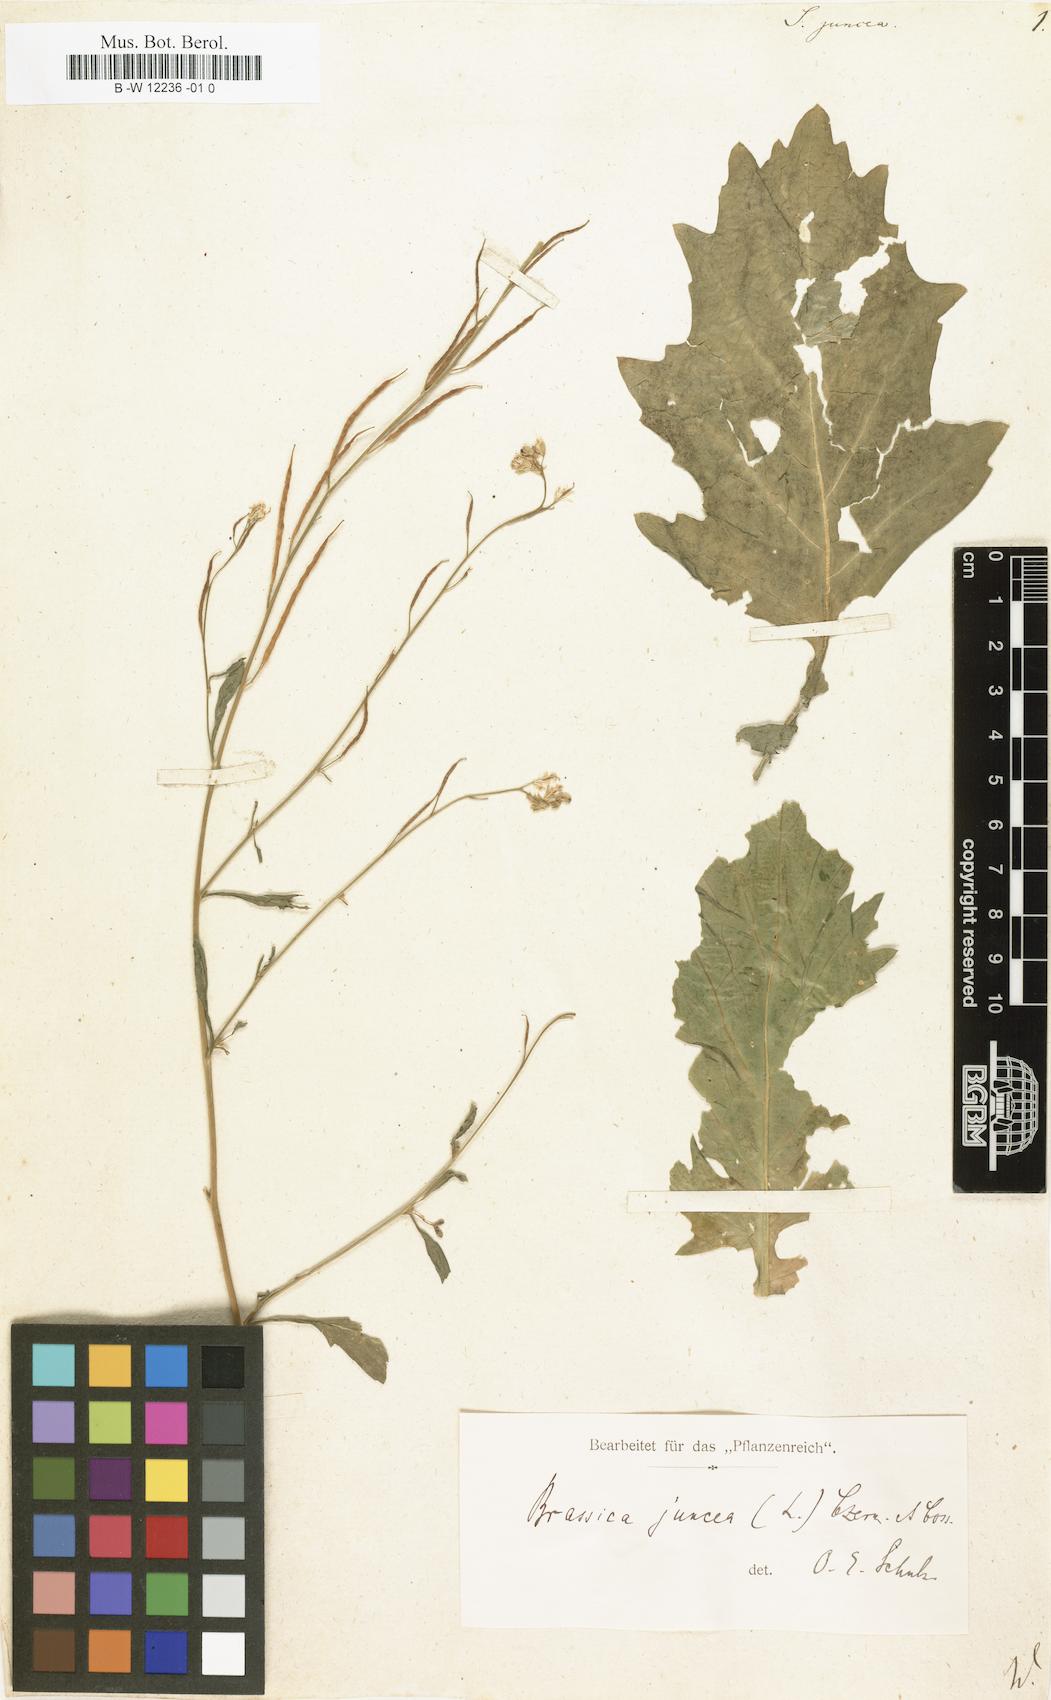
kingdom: Plantae
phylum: Tracheophyta
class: Magnoliopsida
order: Brassicales
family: Brassicaceae
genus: Brassica
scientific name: Brassica juncea
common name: Brown mustard
